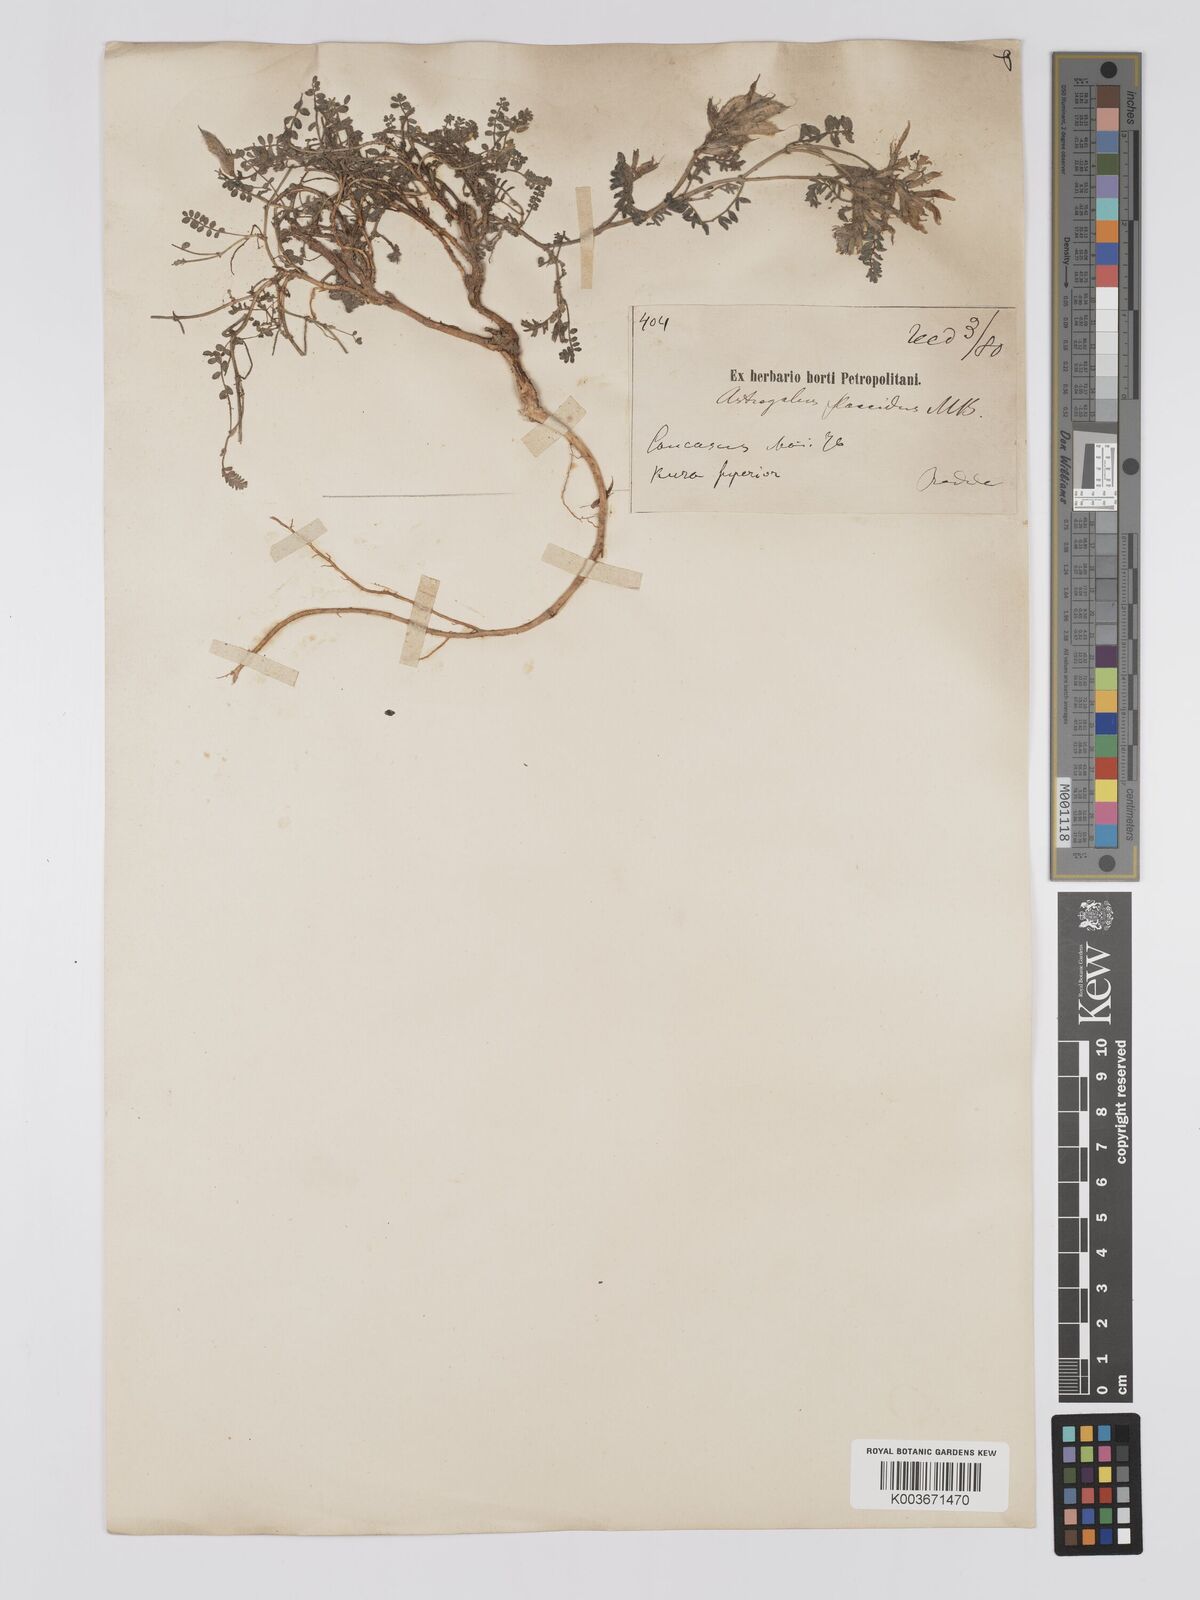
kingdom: Plantae
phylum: Tracheophyta
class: Magnoliopsida
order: Fabales
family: Fabaceae
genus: Astragalus
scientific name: Astragalus humifusus
